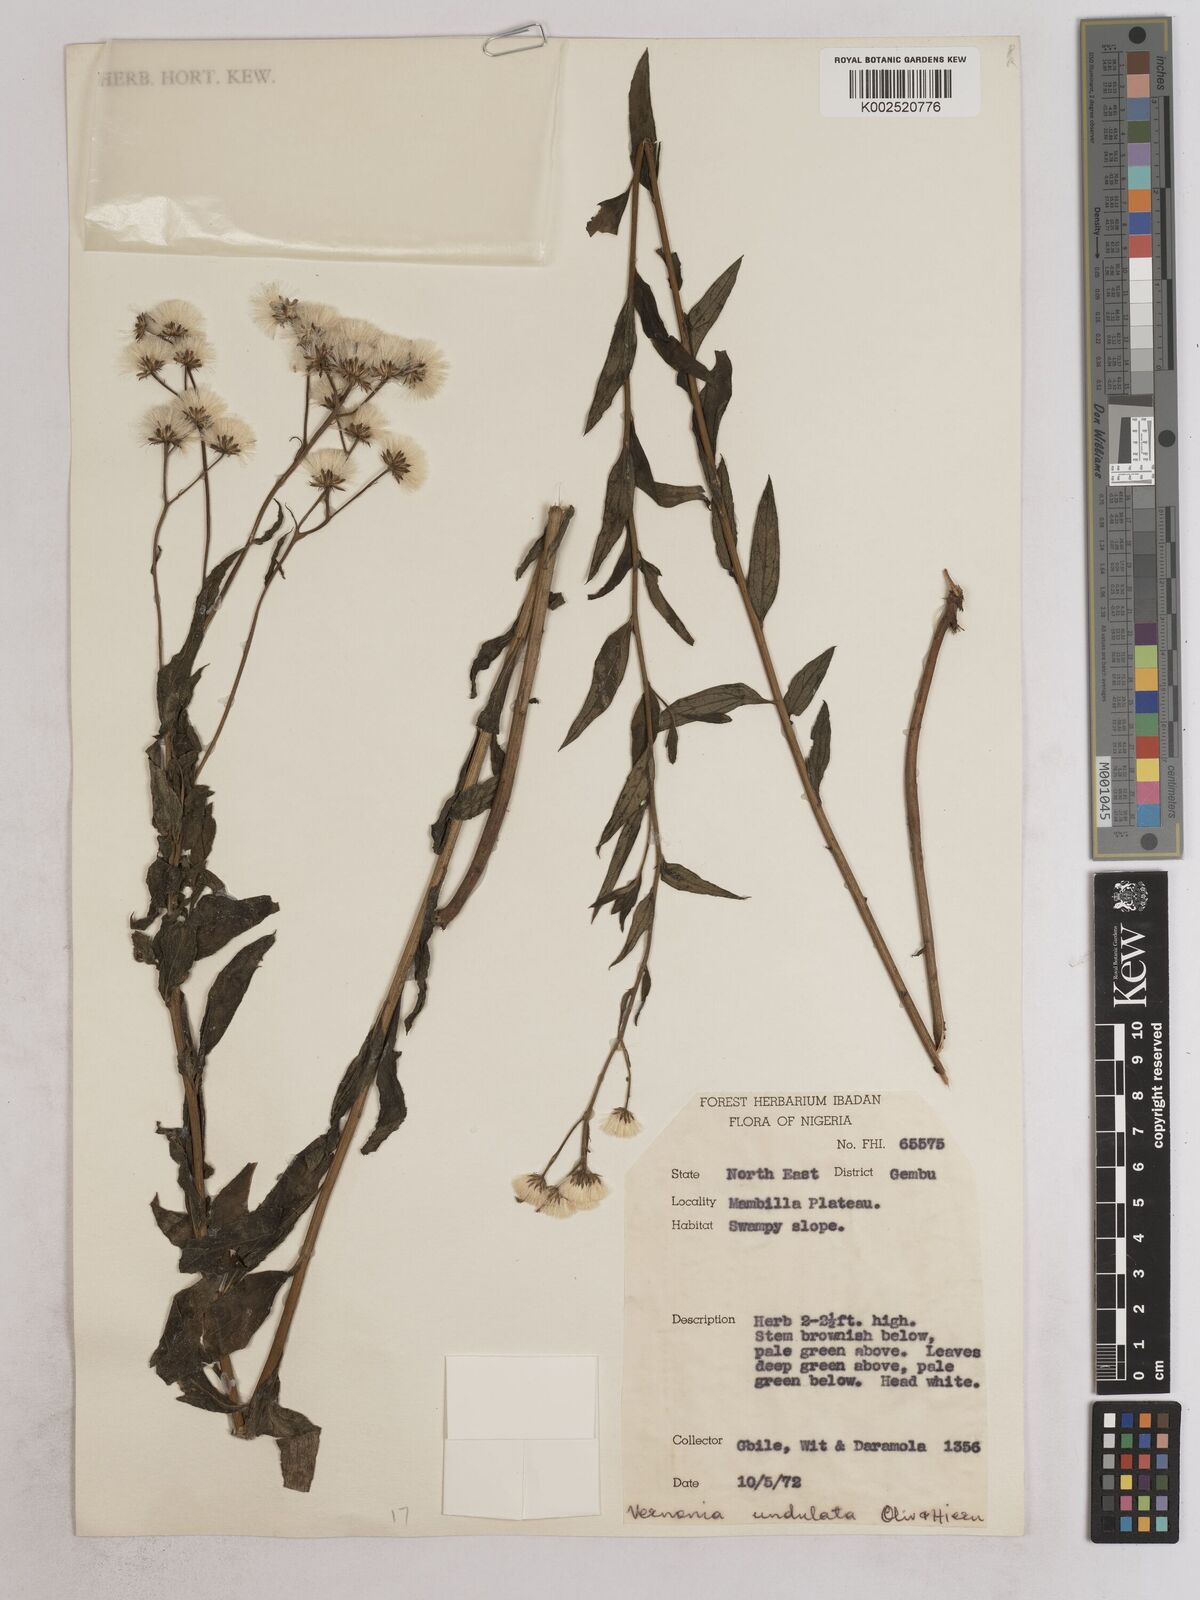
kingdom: Plantae
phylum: Tracheophyta
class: Magnoliopsida
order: Asterales
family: Asteraceae
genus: Vernonia
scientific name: Vernonia golungensis
